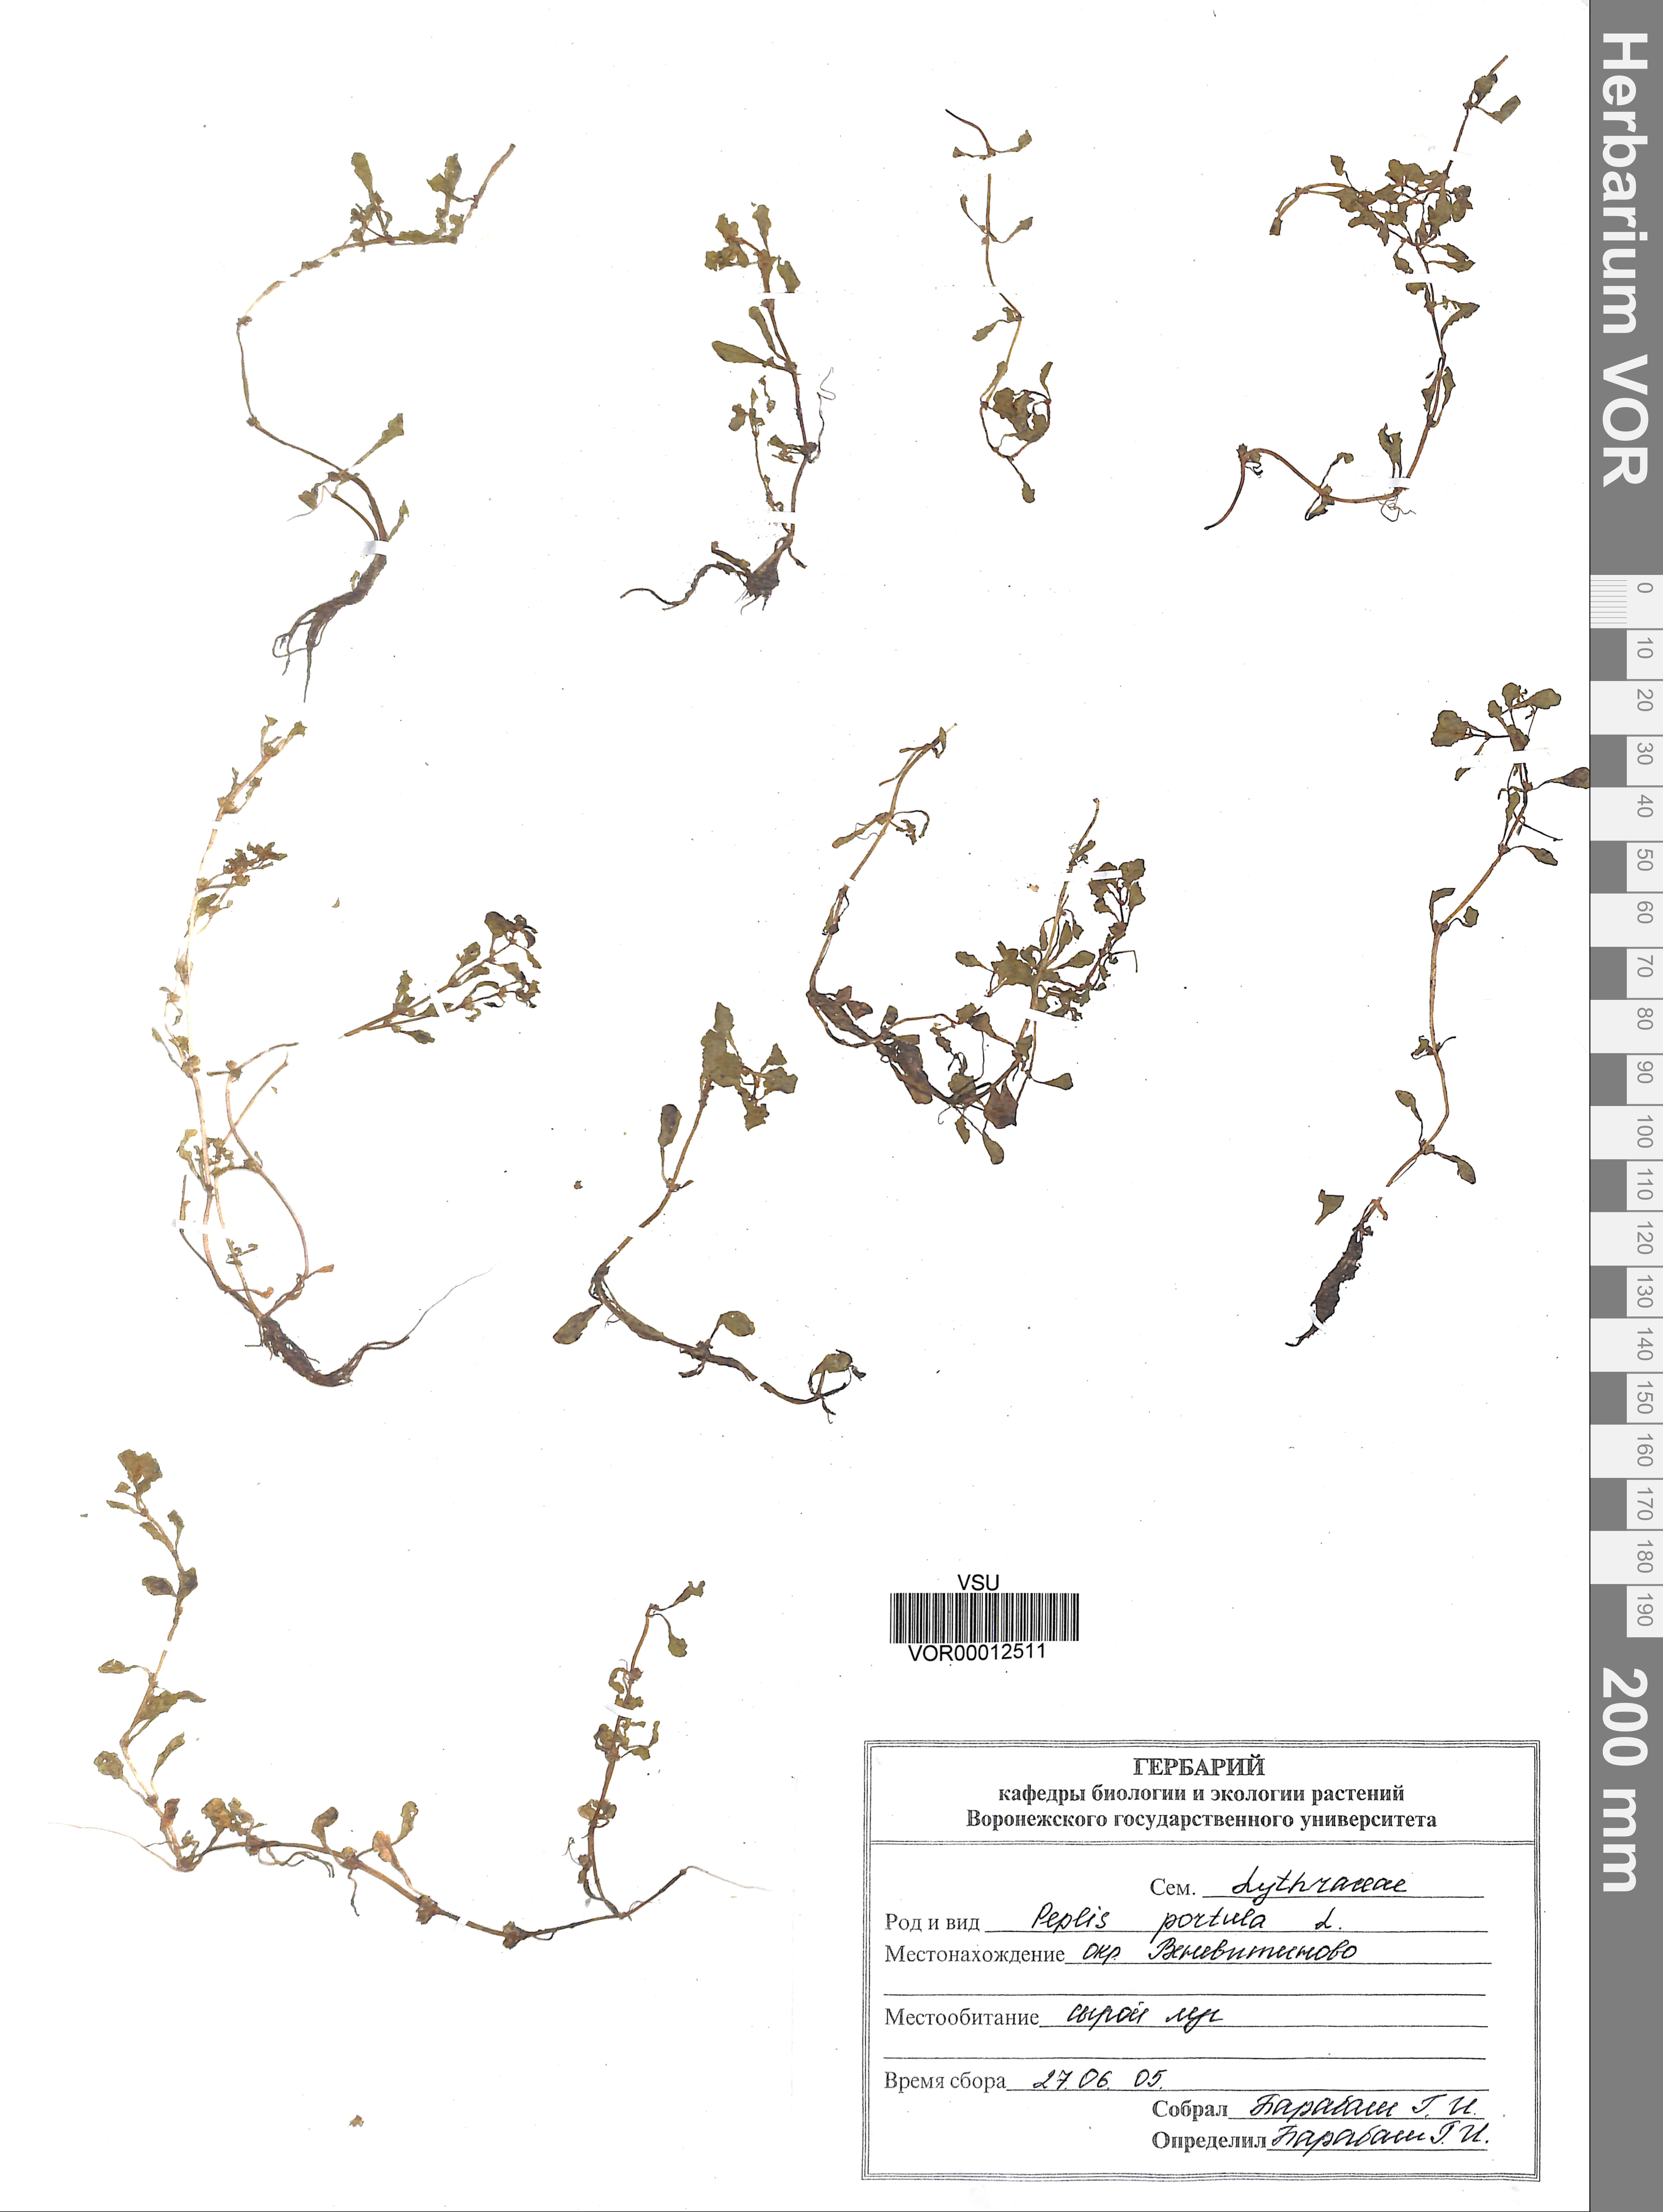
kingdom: Plantae
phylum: Tracheophyta
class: Magnoliopsida
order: Myrtales
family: Lythraceae
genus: Lythrum
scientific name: Lythrum portula
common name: Water purslane
